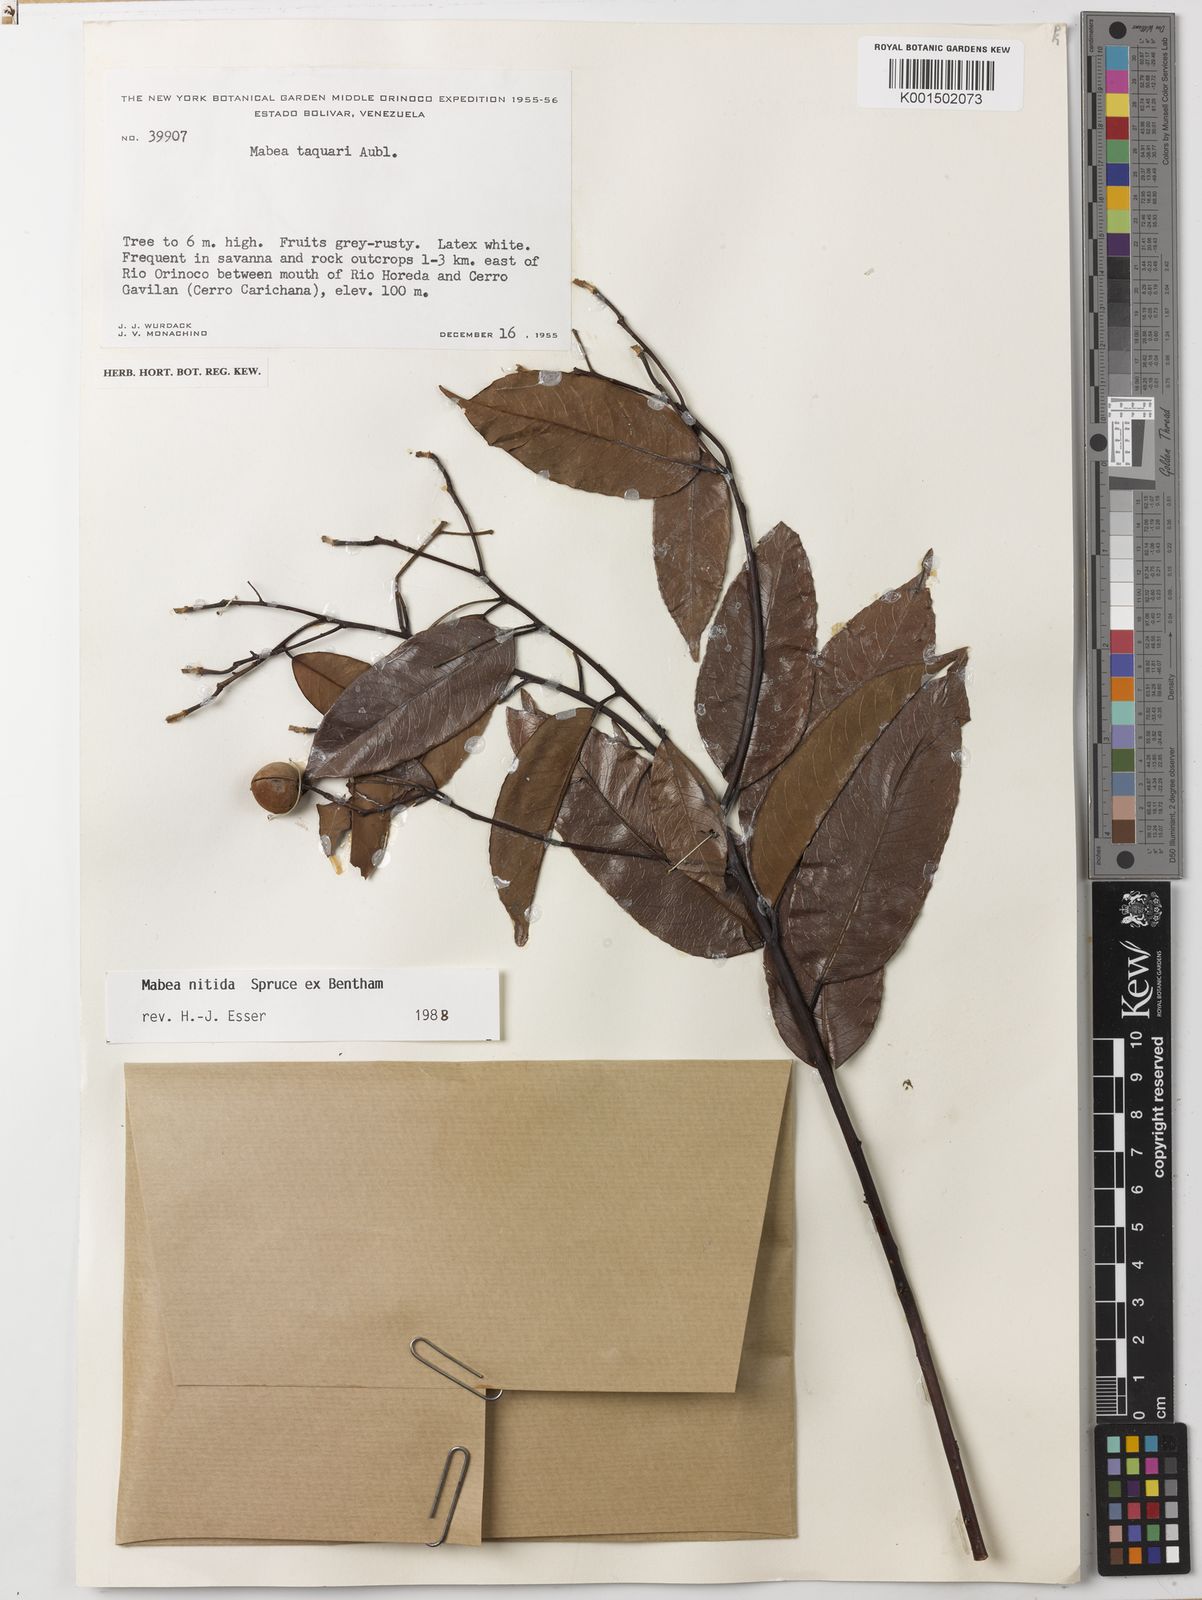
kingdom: Plantae
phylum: Tracheophyta
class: Magnoliopsida
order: Malpighiales
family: Euphorbiaceae
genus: Mabea
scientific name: Mabea nitida
